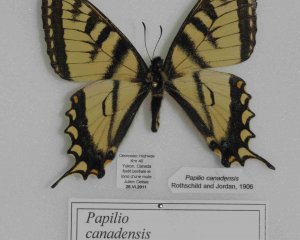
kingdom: Animalia
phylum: Arthropoda
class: Insecta
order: Lepidoptera
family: Papilionidae
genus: Pterourus
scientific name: Pterourus canadensis
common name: Canadian Tiger Swallowtail
